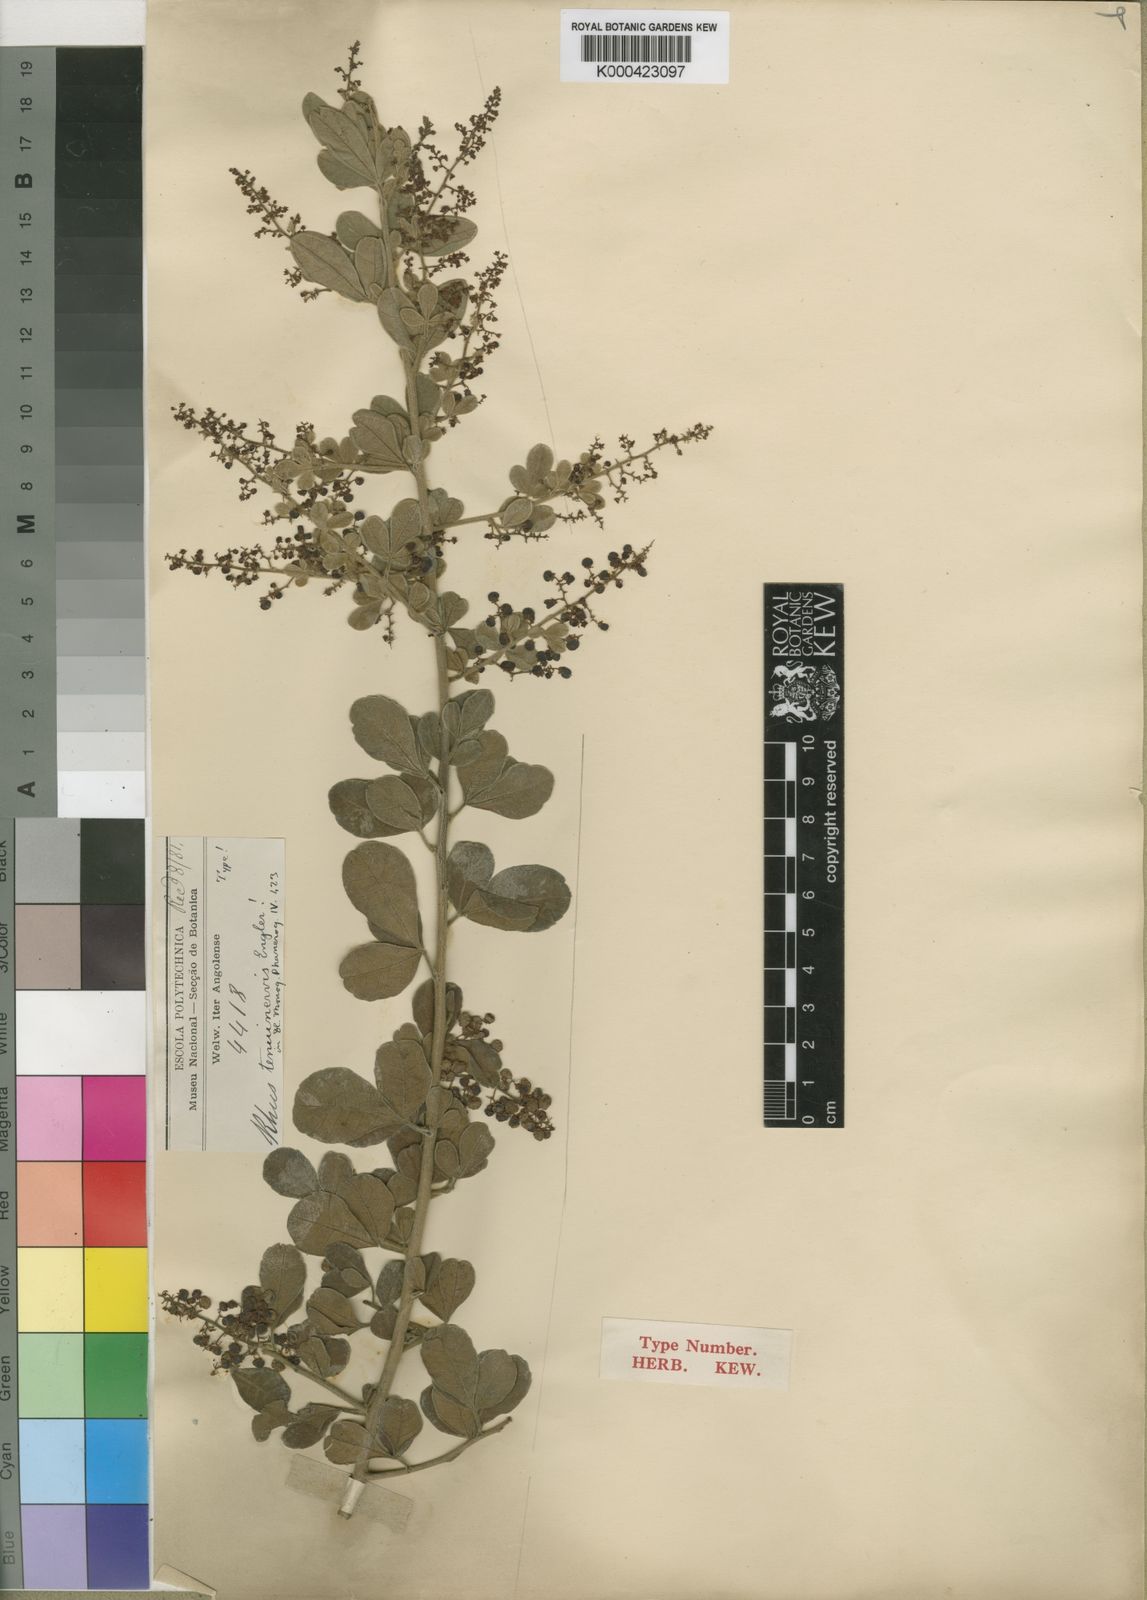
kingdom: Plantae
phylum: Tracheophyta
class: Magnoliopsida
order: Sapindales
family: Anacardiaceae
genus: Searsia
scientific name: Searsia tenuinervis
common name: Hyaena taaibos
